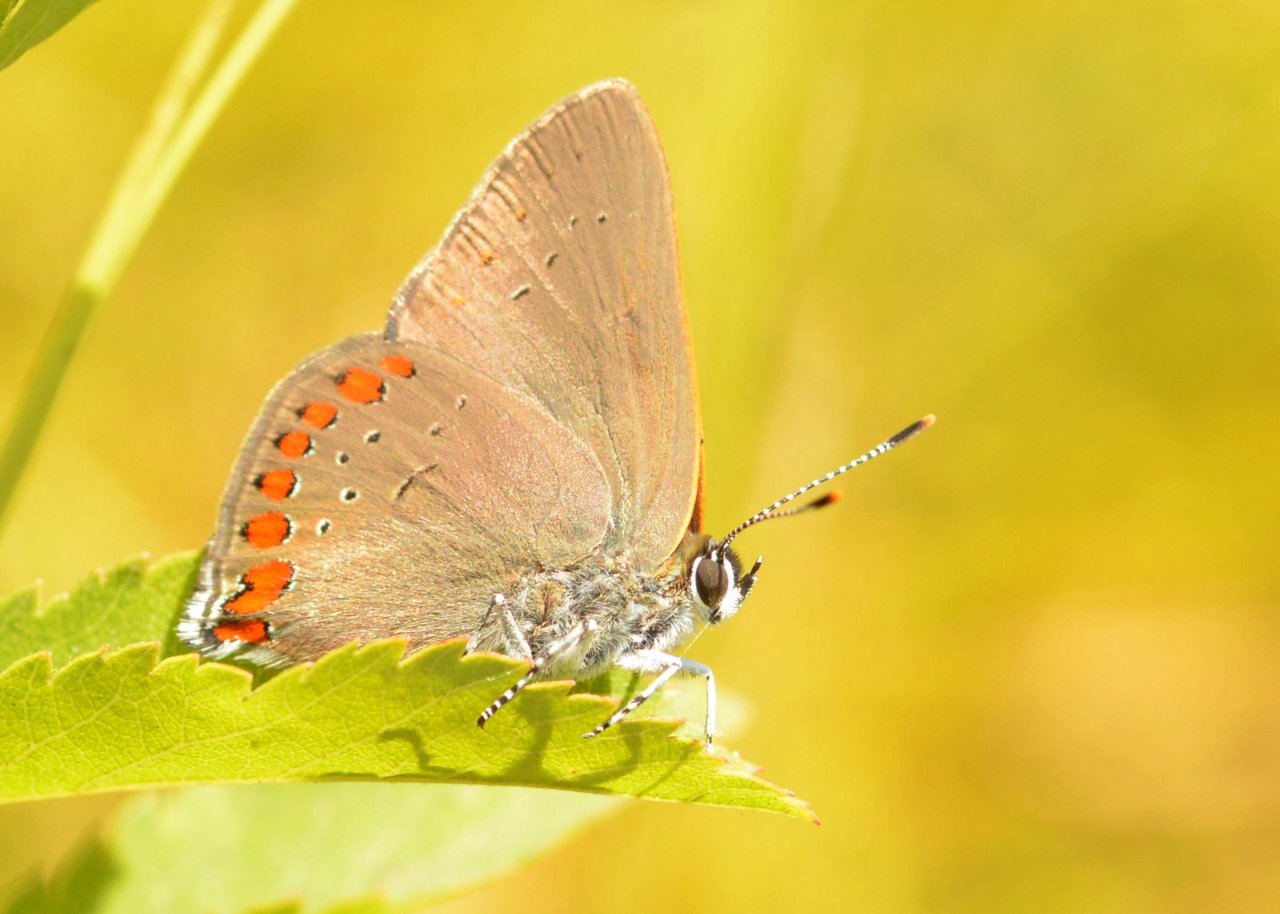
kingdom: Animalia
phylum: Arthropoda
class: Insecta
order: Lepidoptera
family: Lycaenidae
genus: Harkenclenus
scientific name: Harkenclenus titus
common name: Coral Hairstreak
